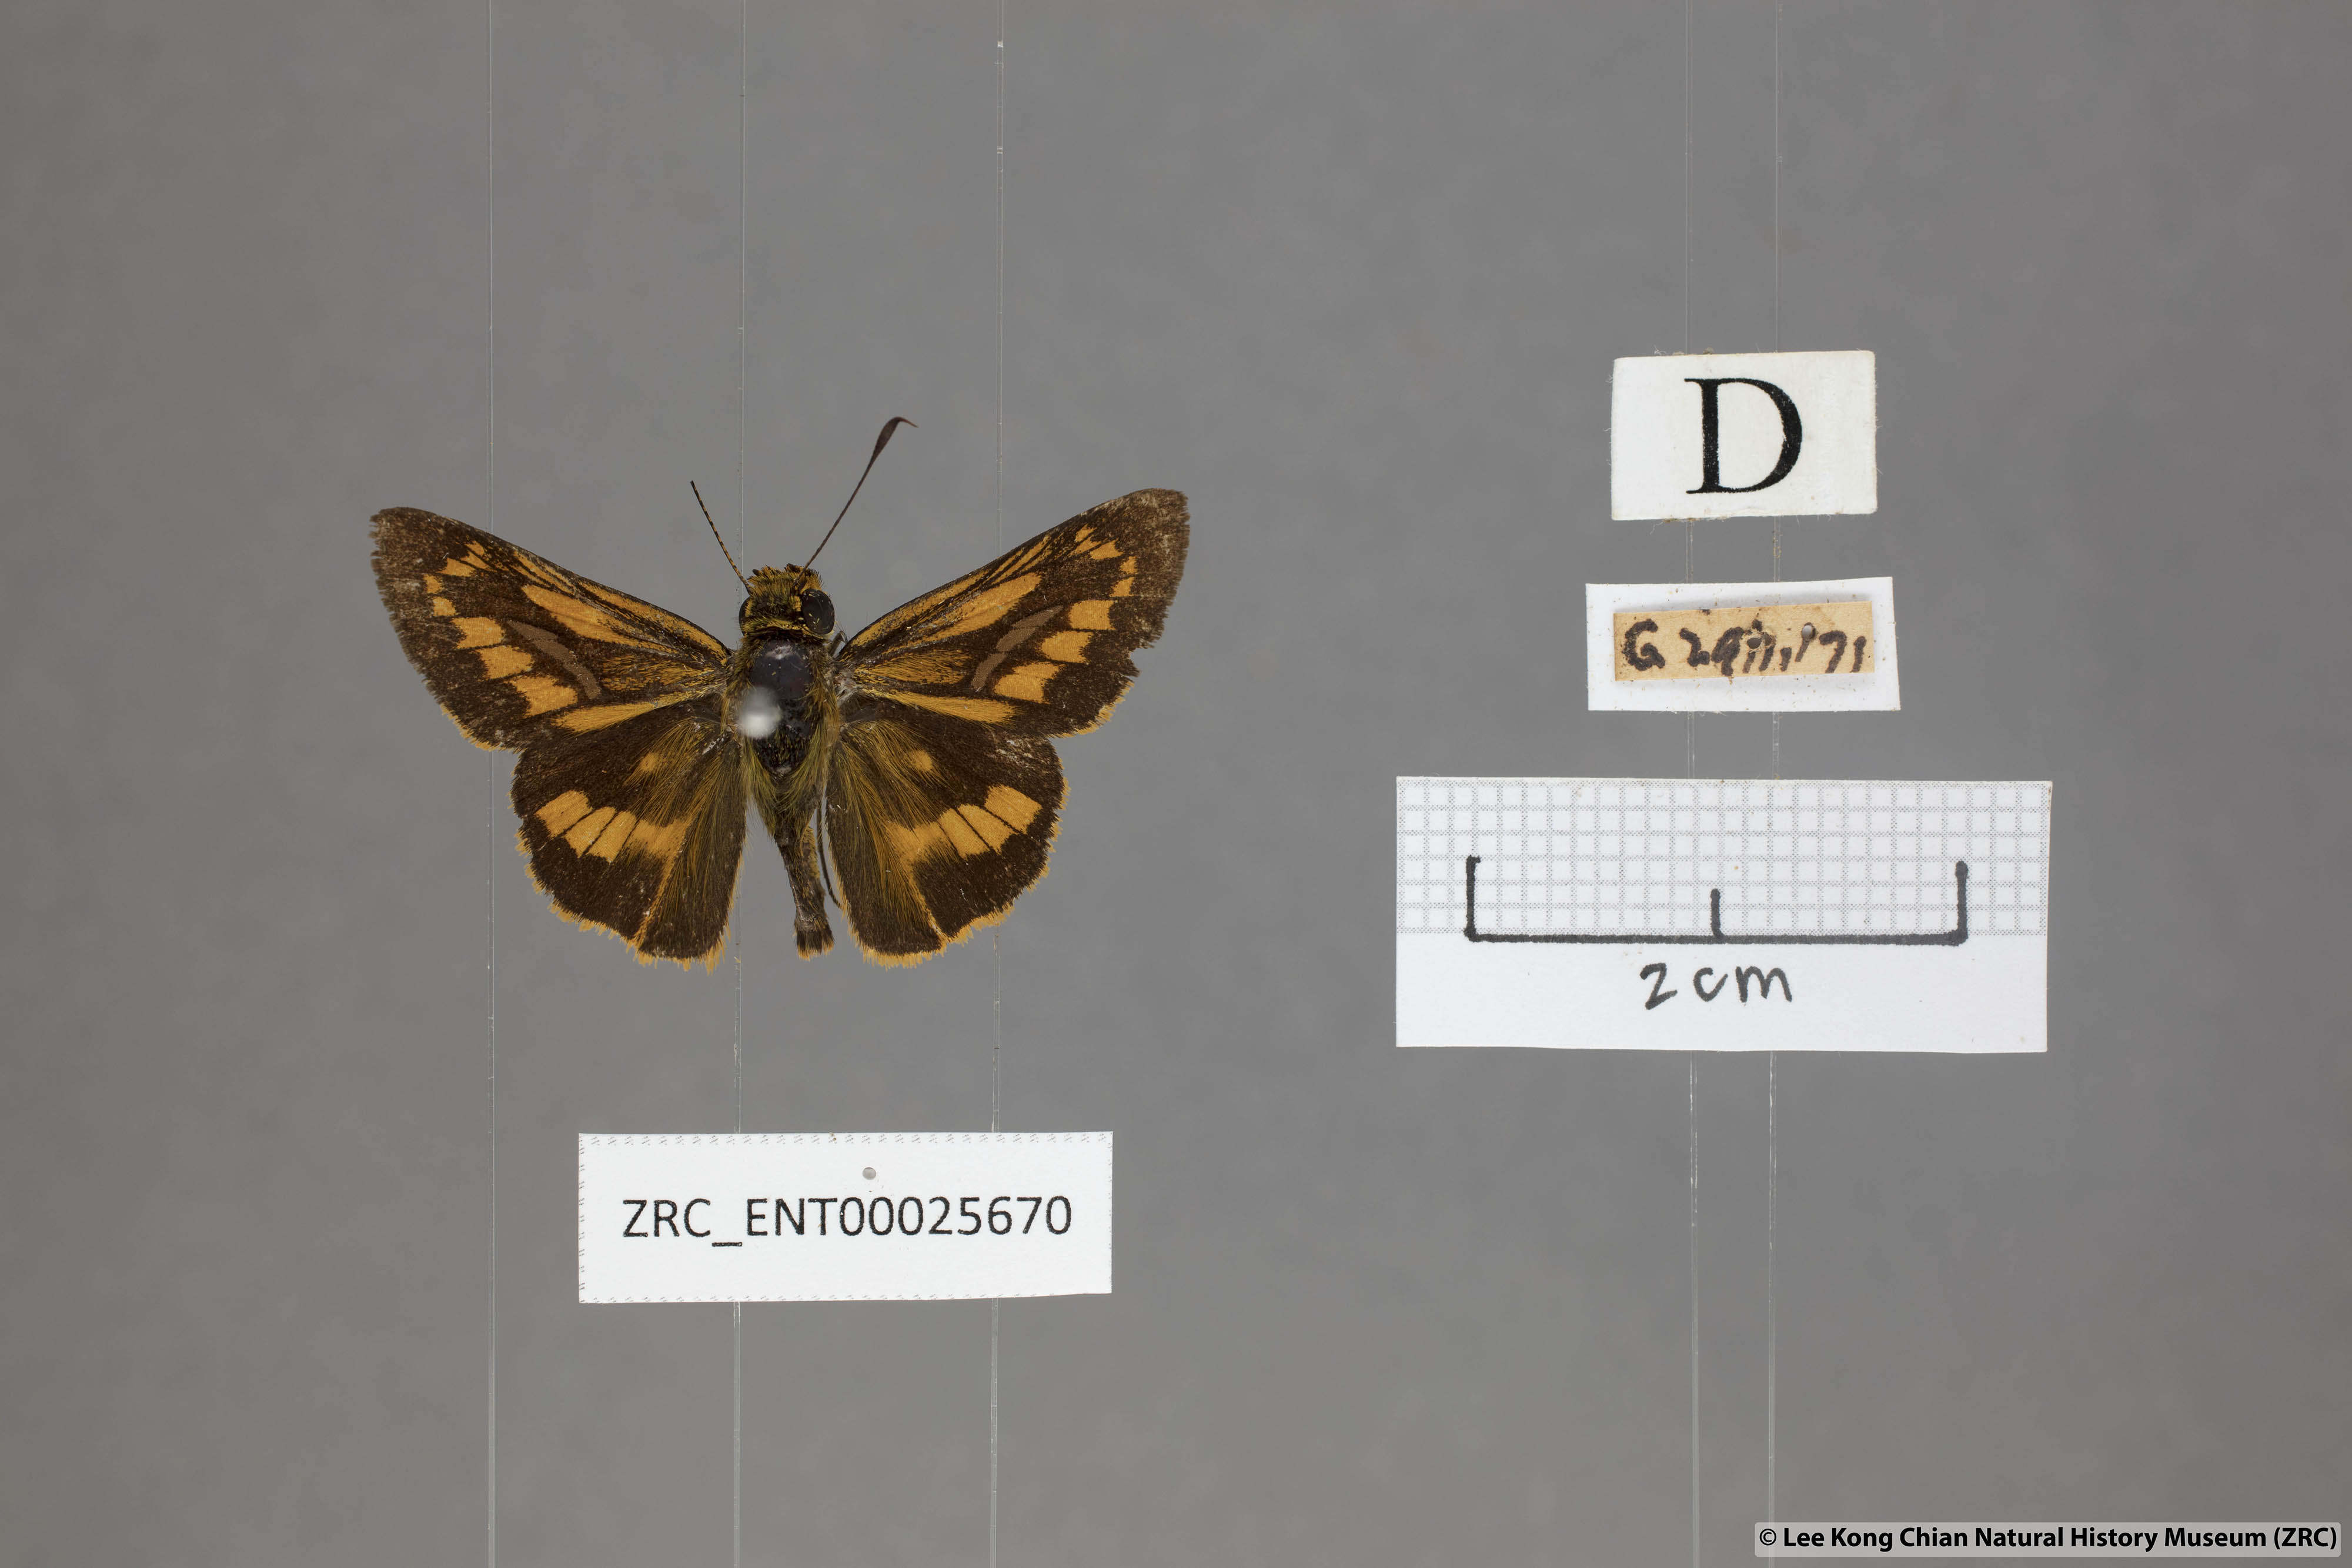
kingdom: Animalia
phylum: Arthropoda
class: Insecta
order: Lepidoptera
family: Hesperiidae
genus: Telicota
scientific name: Telicota hilda
